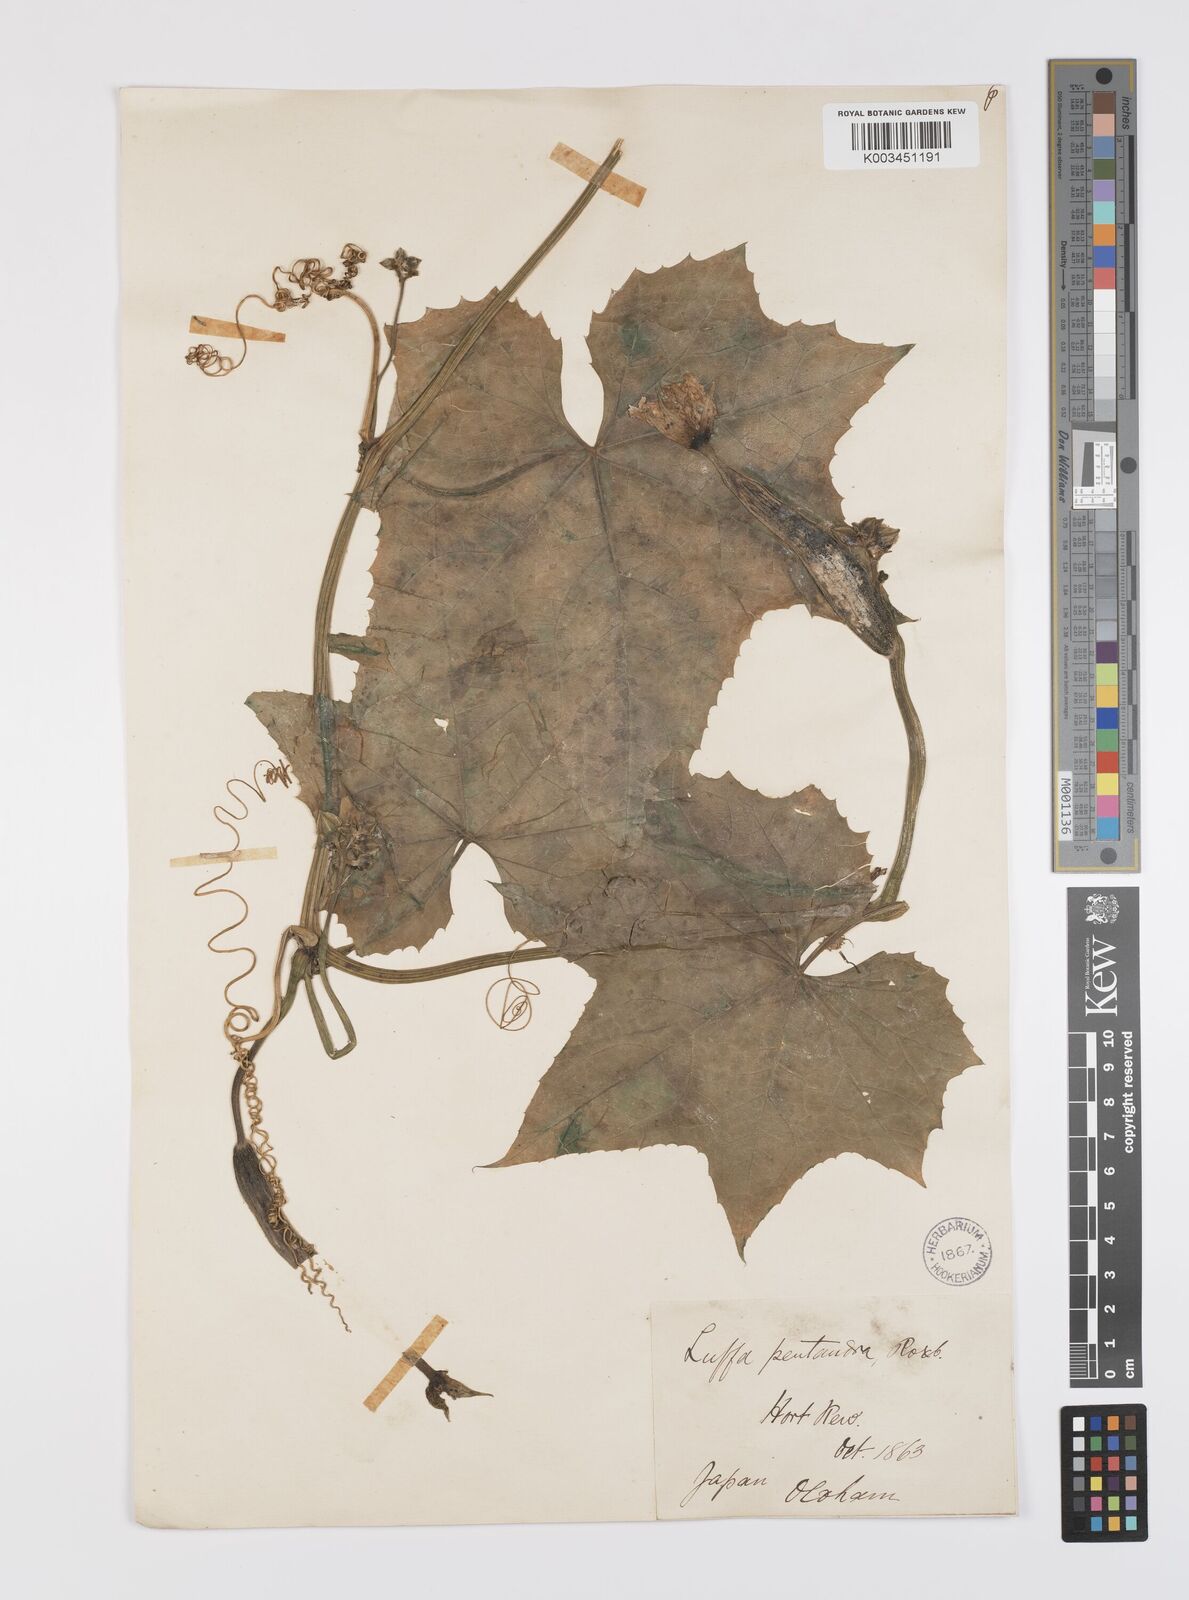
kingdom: Plantae
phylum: Tracheophyta
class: Magnoliopsida
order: Cucurbitales
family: Cucurbitaceae
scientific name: Cucurbitaceae
